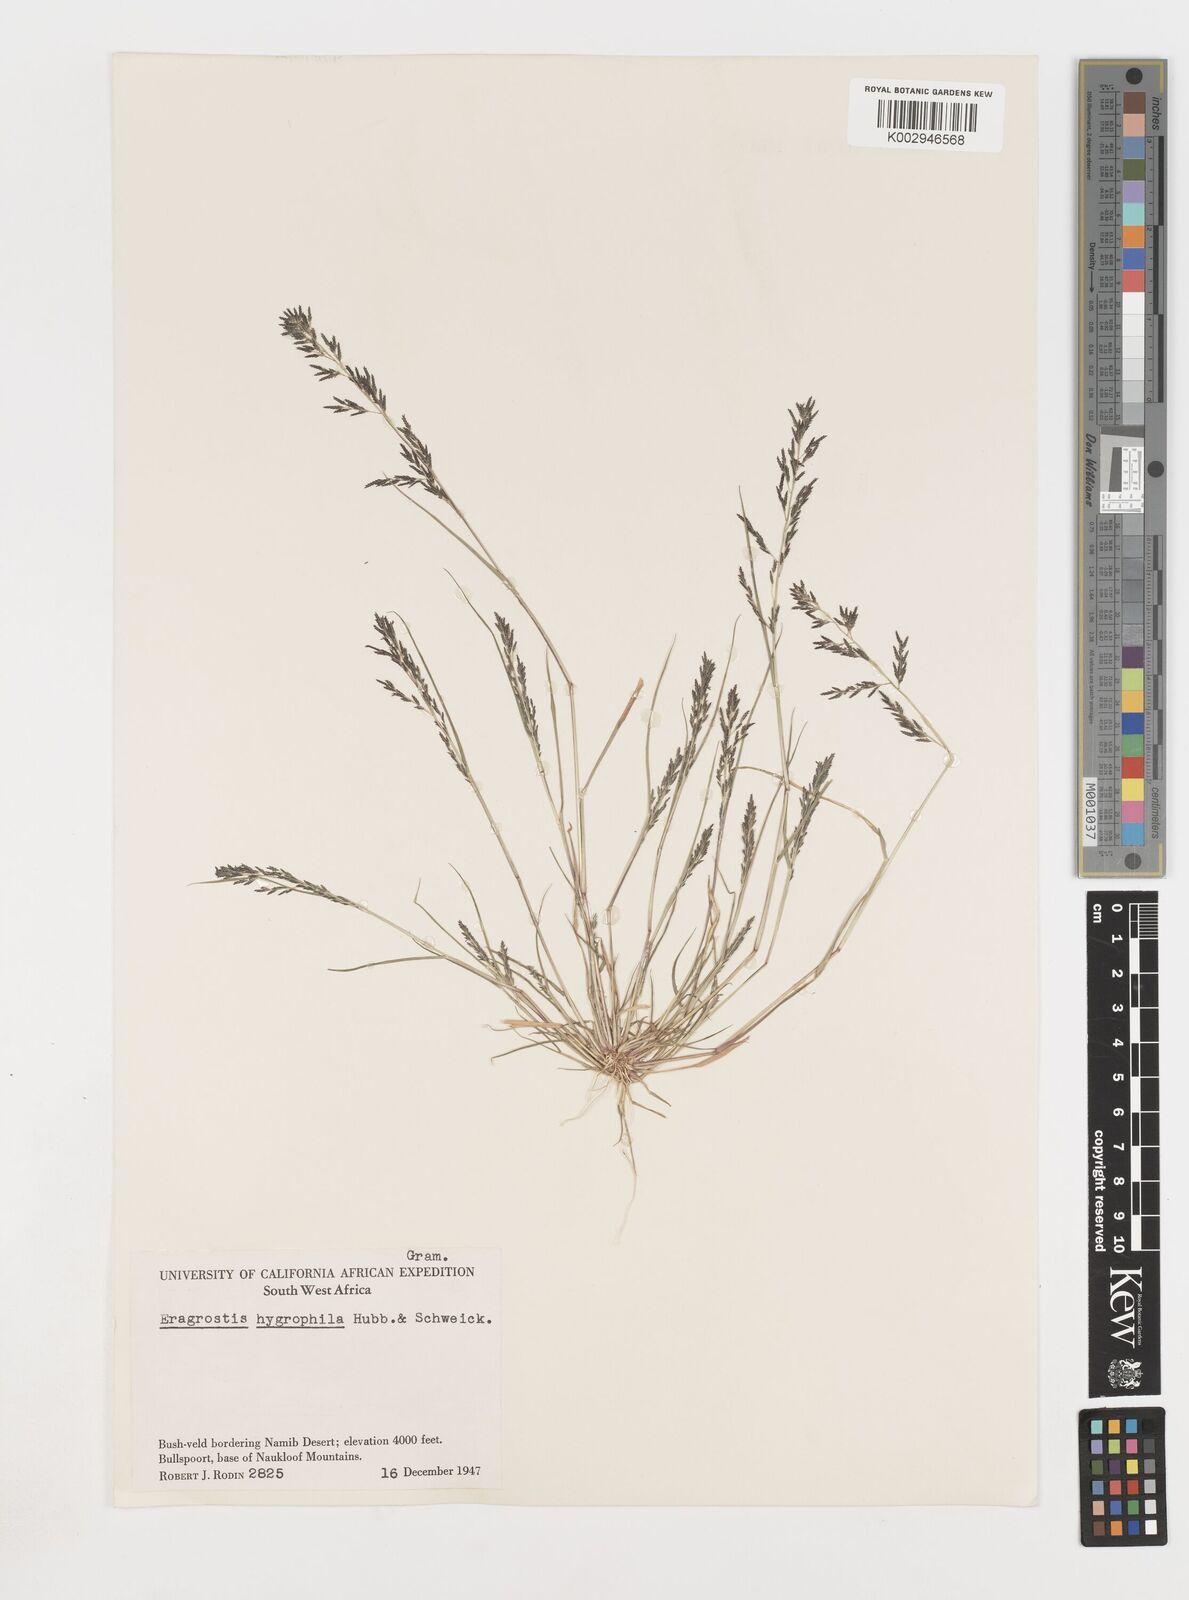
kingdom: Plantae
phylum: Tracheophyta
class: Liliopsida
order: Poales
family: Poaceae
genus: Eragrostis
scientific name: Eragrostis homomalla
